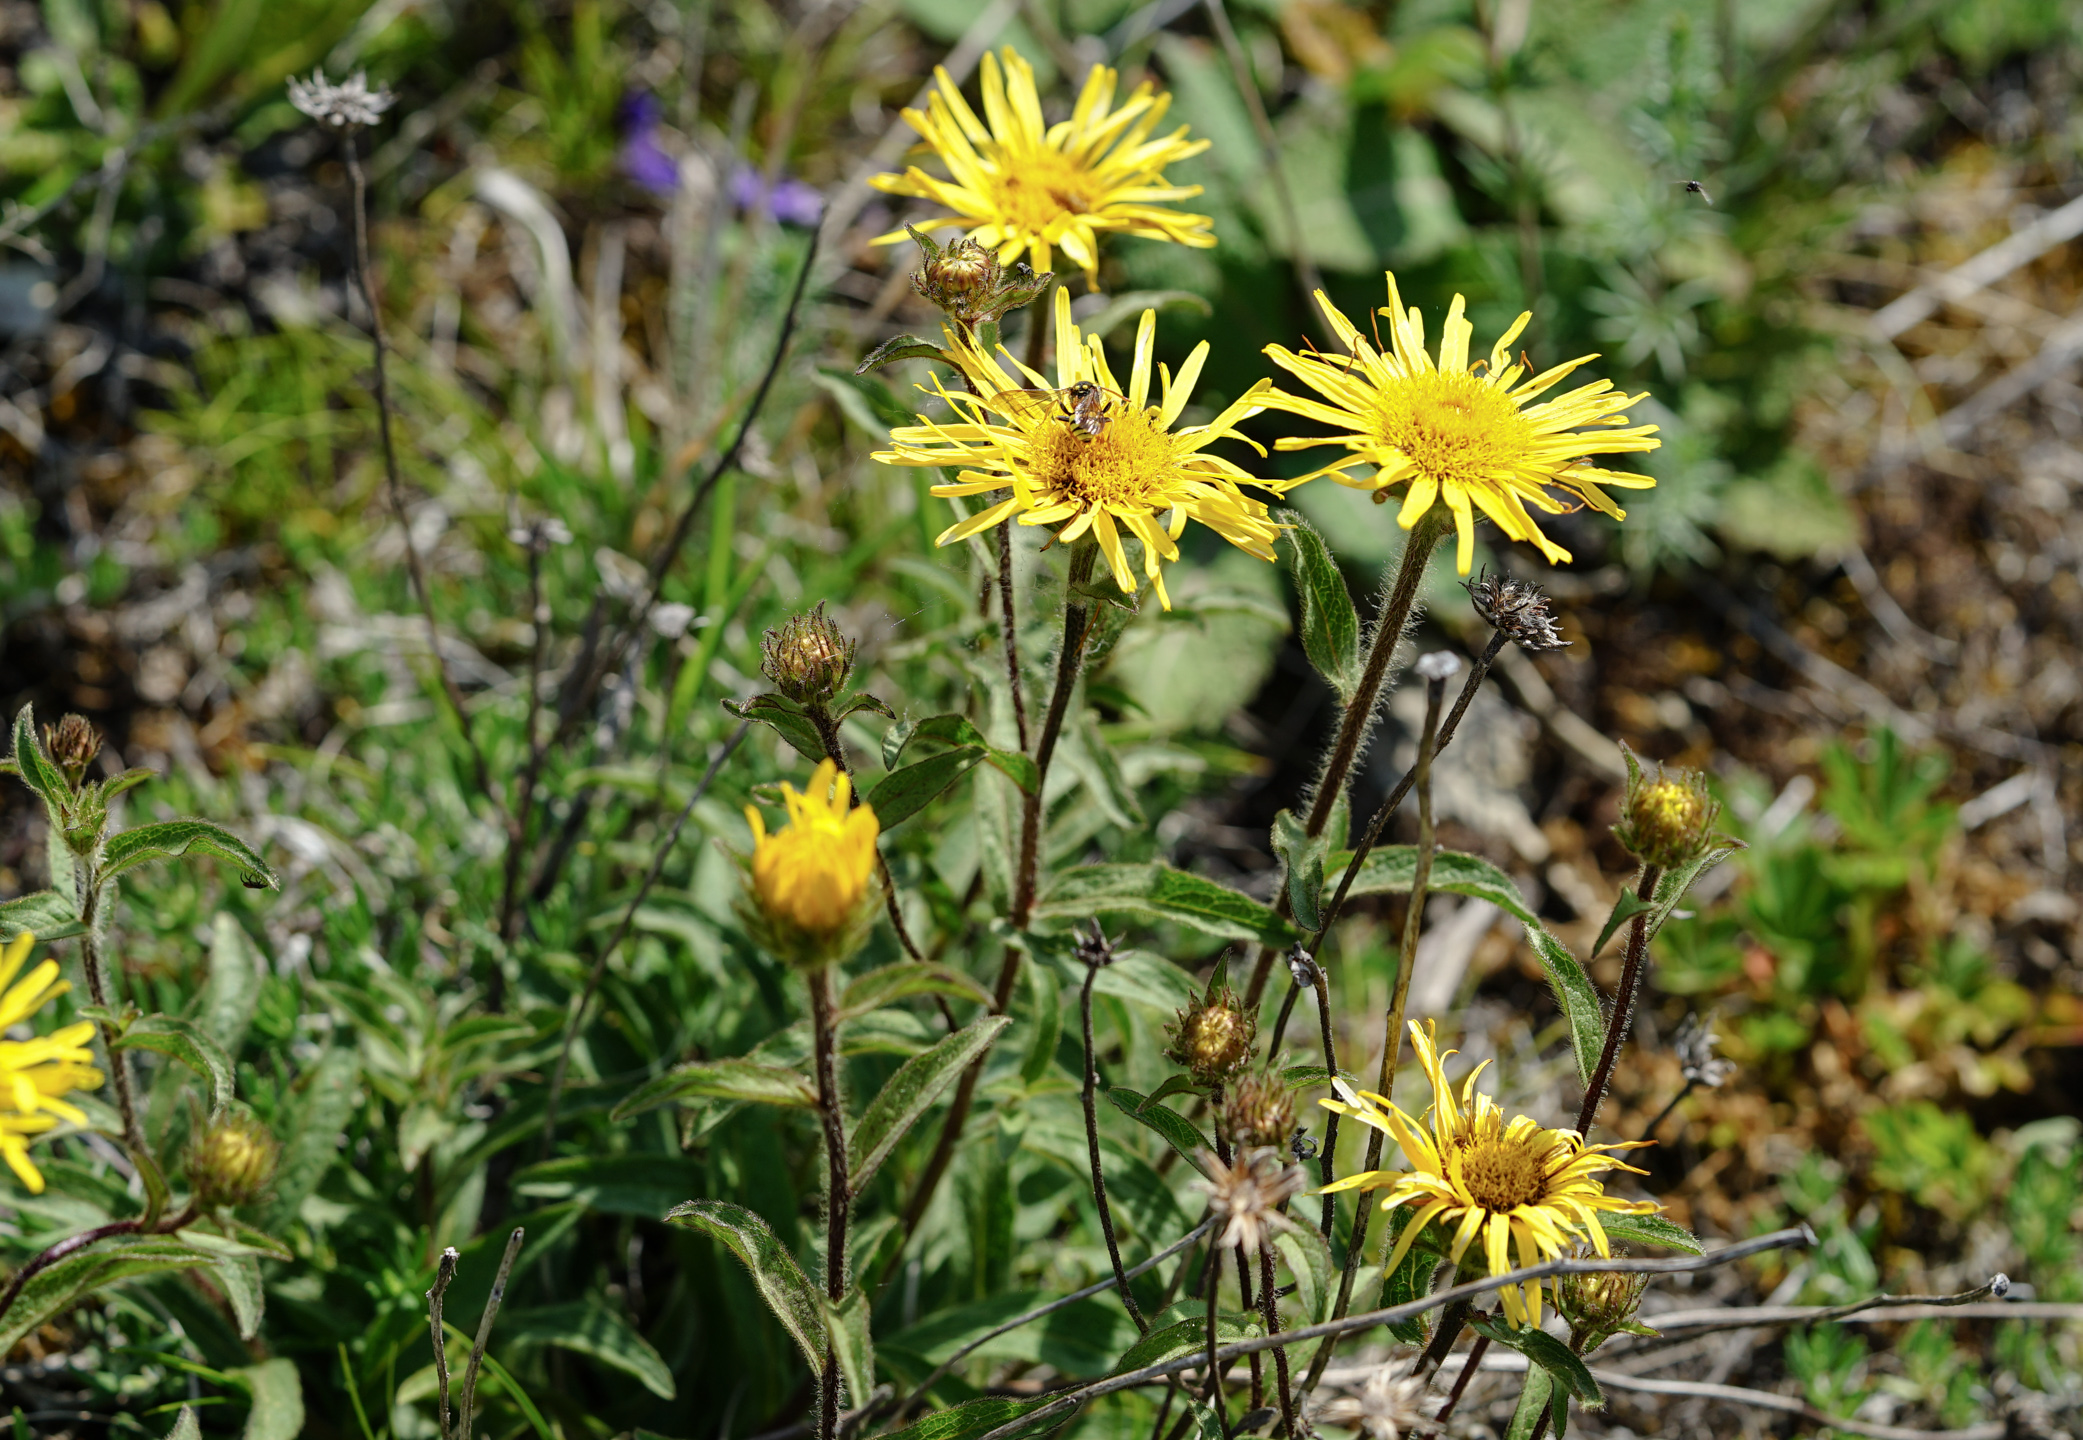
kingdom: Plantae
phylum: Tracheophyta
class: Magnoliopsida
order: Asterales
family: Asteraceae
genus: Pentanema
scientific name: Pentanema hirtum
